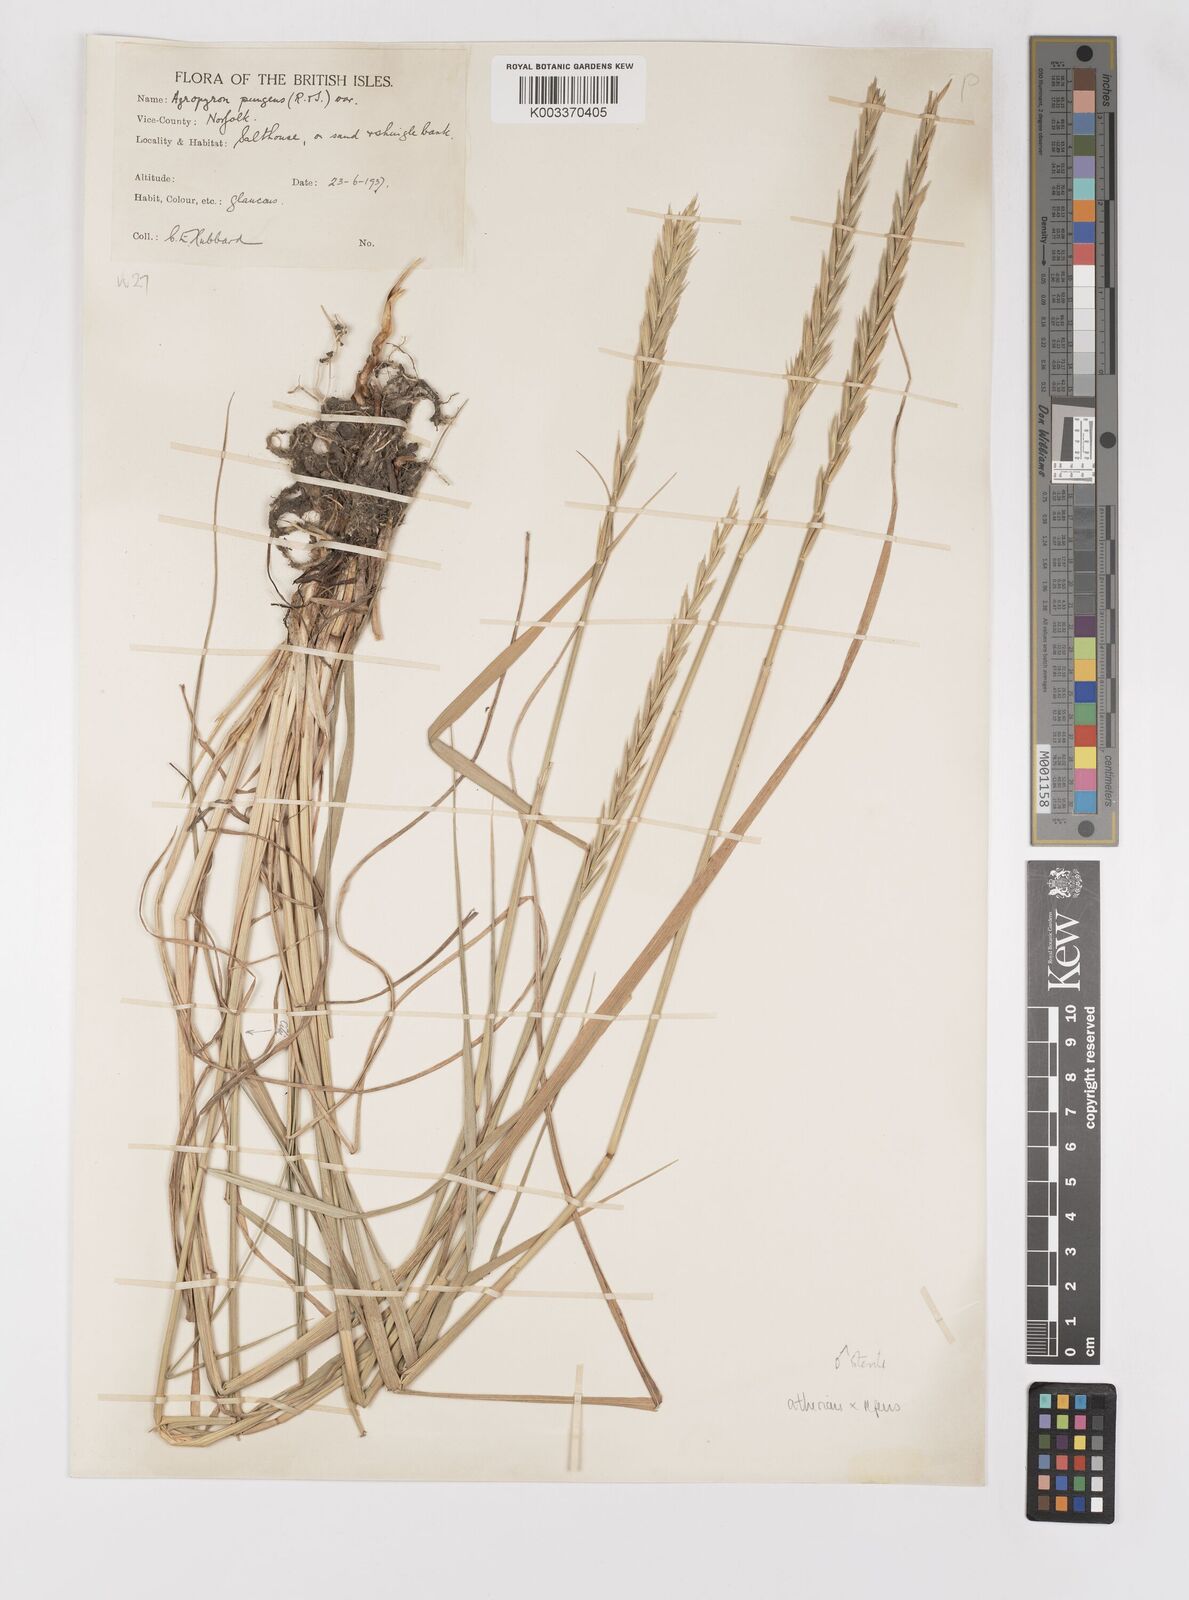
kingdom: Plantae
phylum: Tracheophyta
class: Liliopsida
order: Poales
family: Poaceae
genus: Elymus
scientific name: Elymus oliveri
